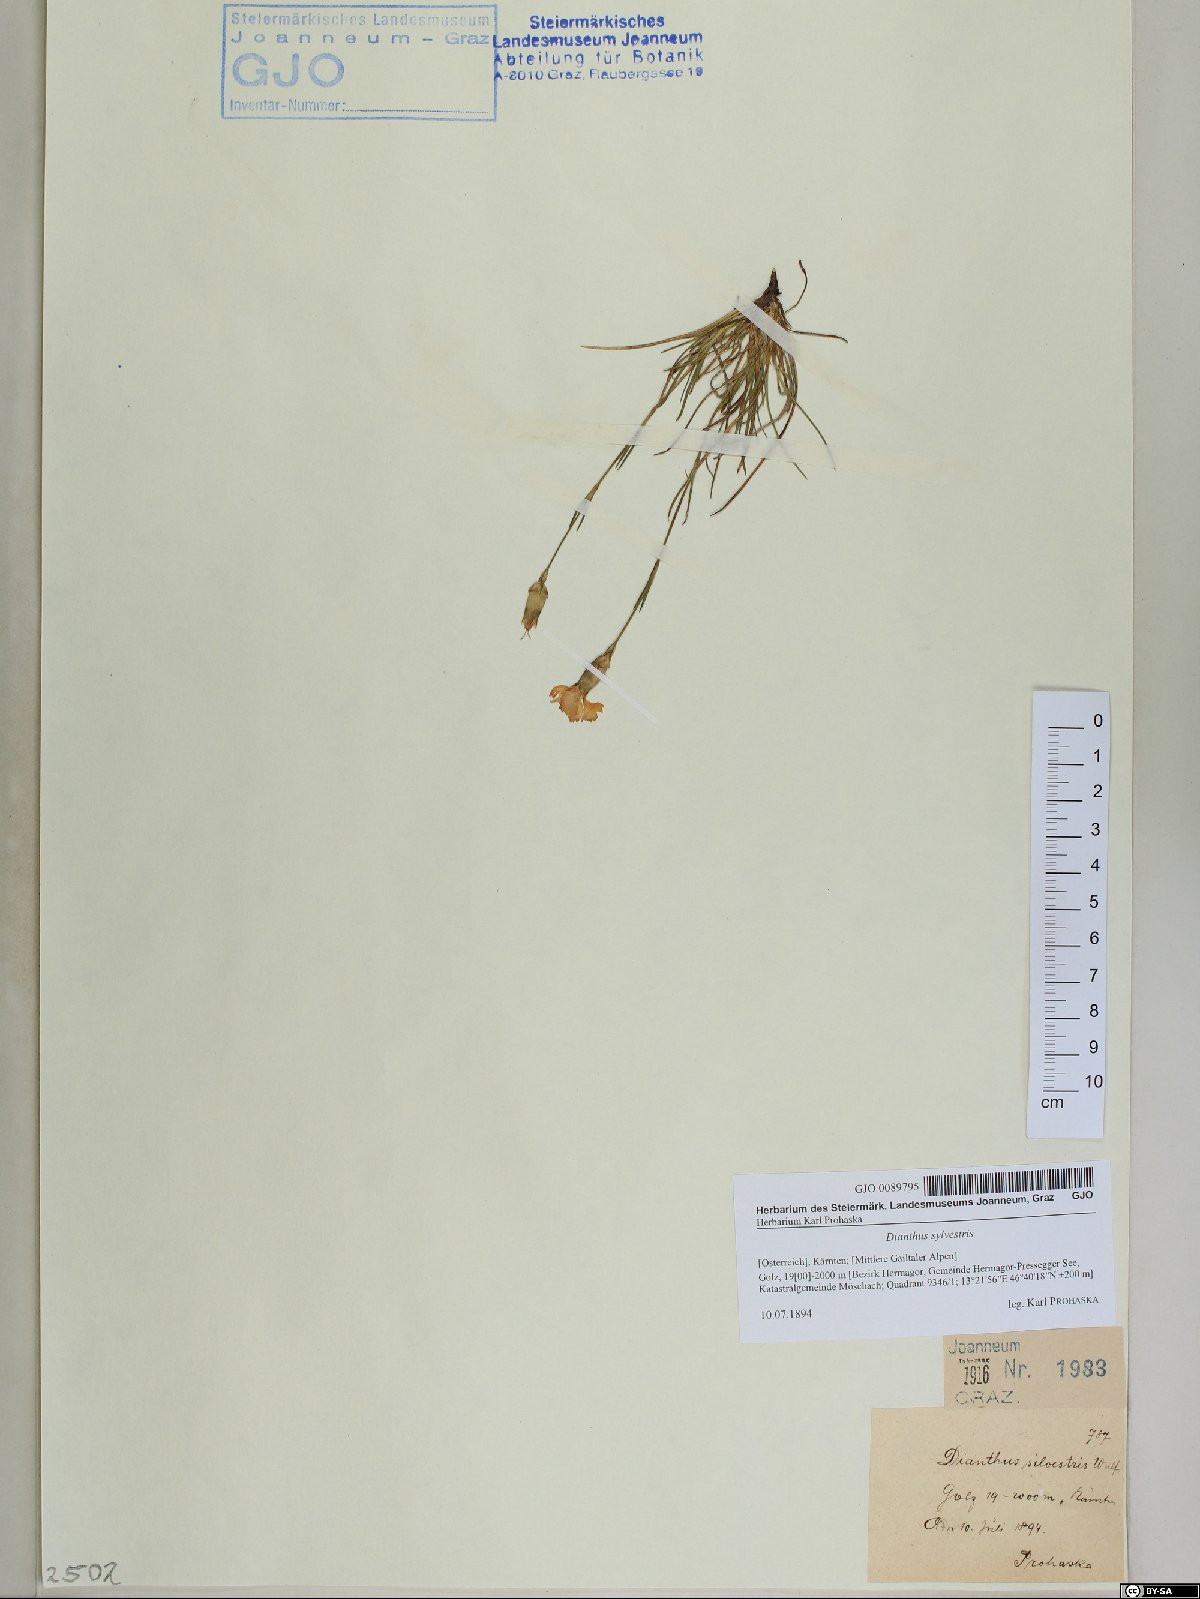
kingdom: Plantae
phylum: Tracheophyta
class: Magnoliopsida
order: Caryophyllales
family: Caryophyllaceae
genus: Dianthus
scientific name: Dianthus sylvestris
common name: Wood pink
